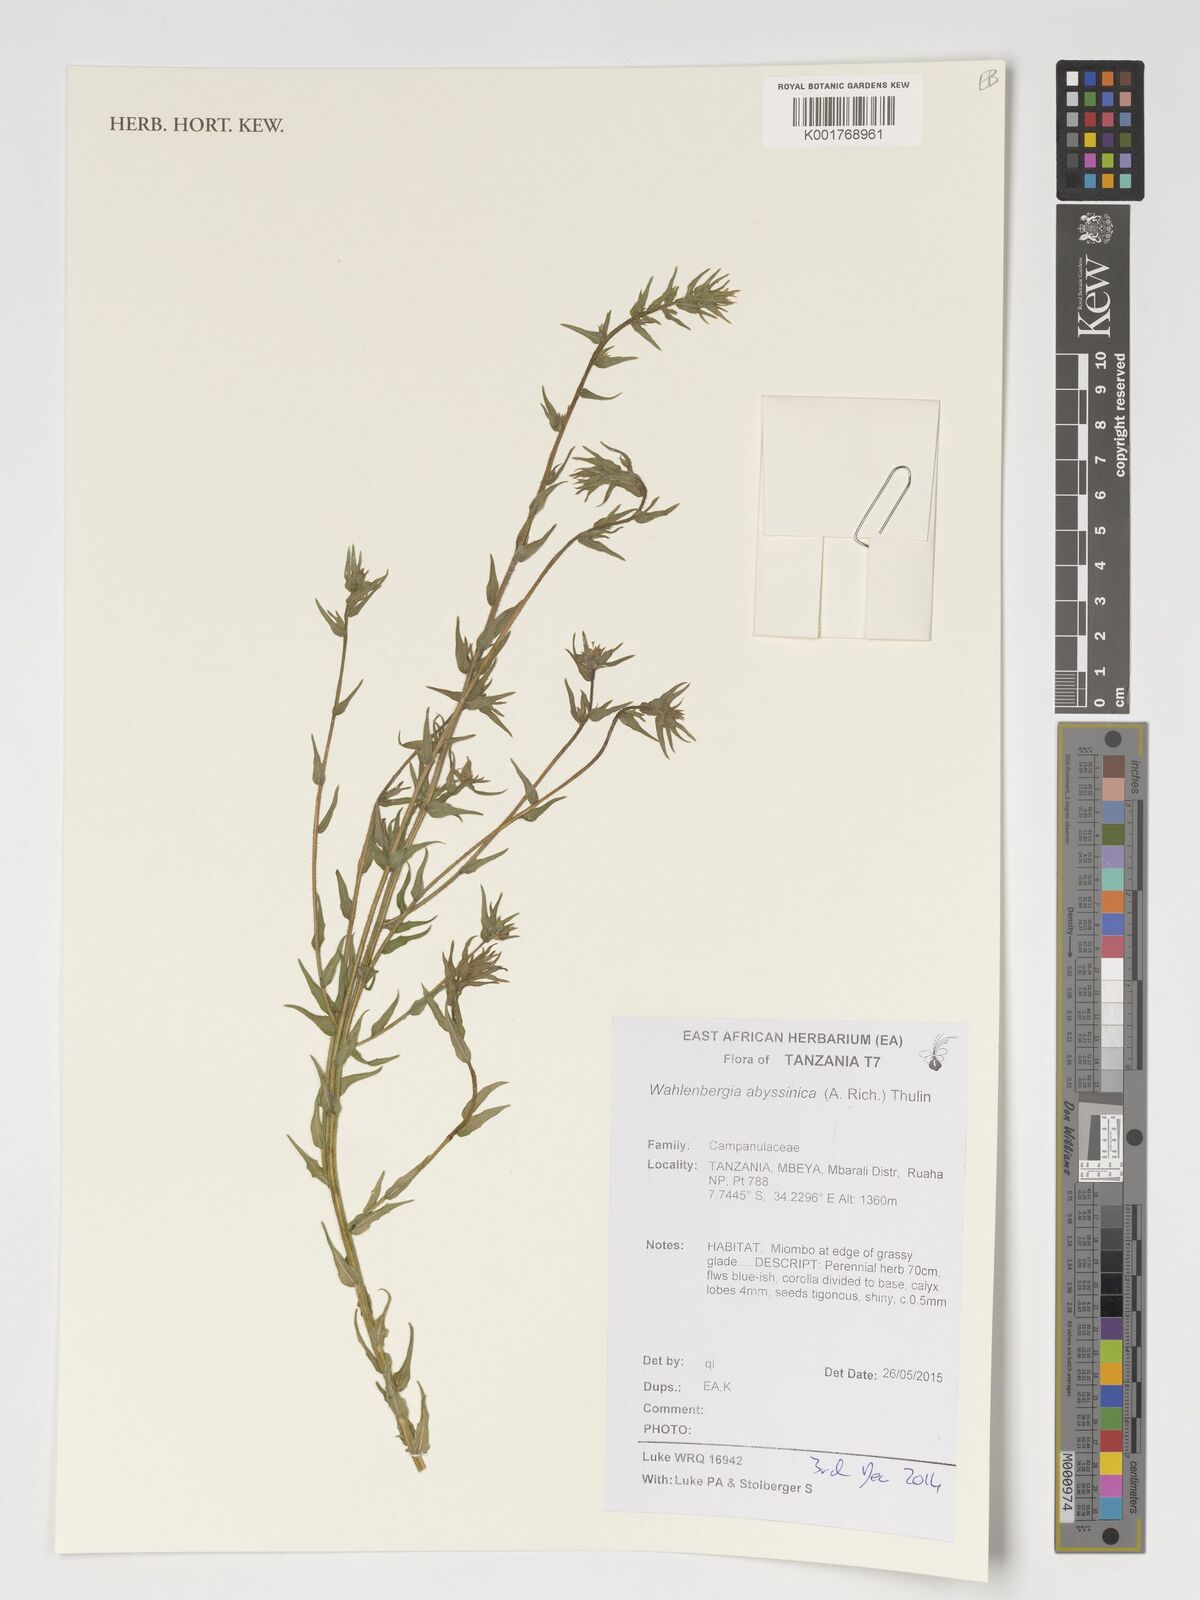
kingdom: Plantae
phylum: Tracheophyta
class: Magnoliopsida
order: Asterales
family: Campanulaceae
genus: Wahlenbergia
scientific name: Wahlenbergia abyssinica
